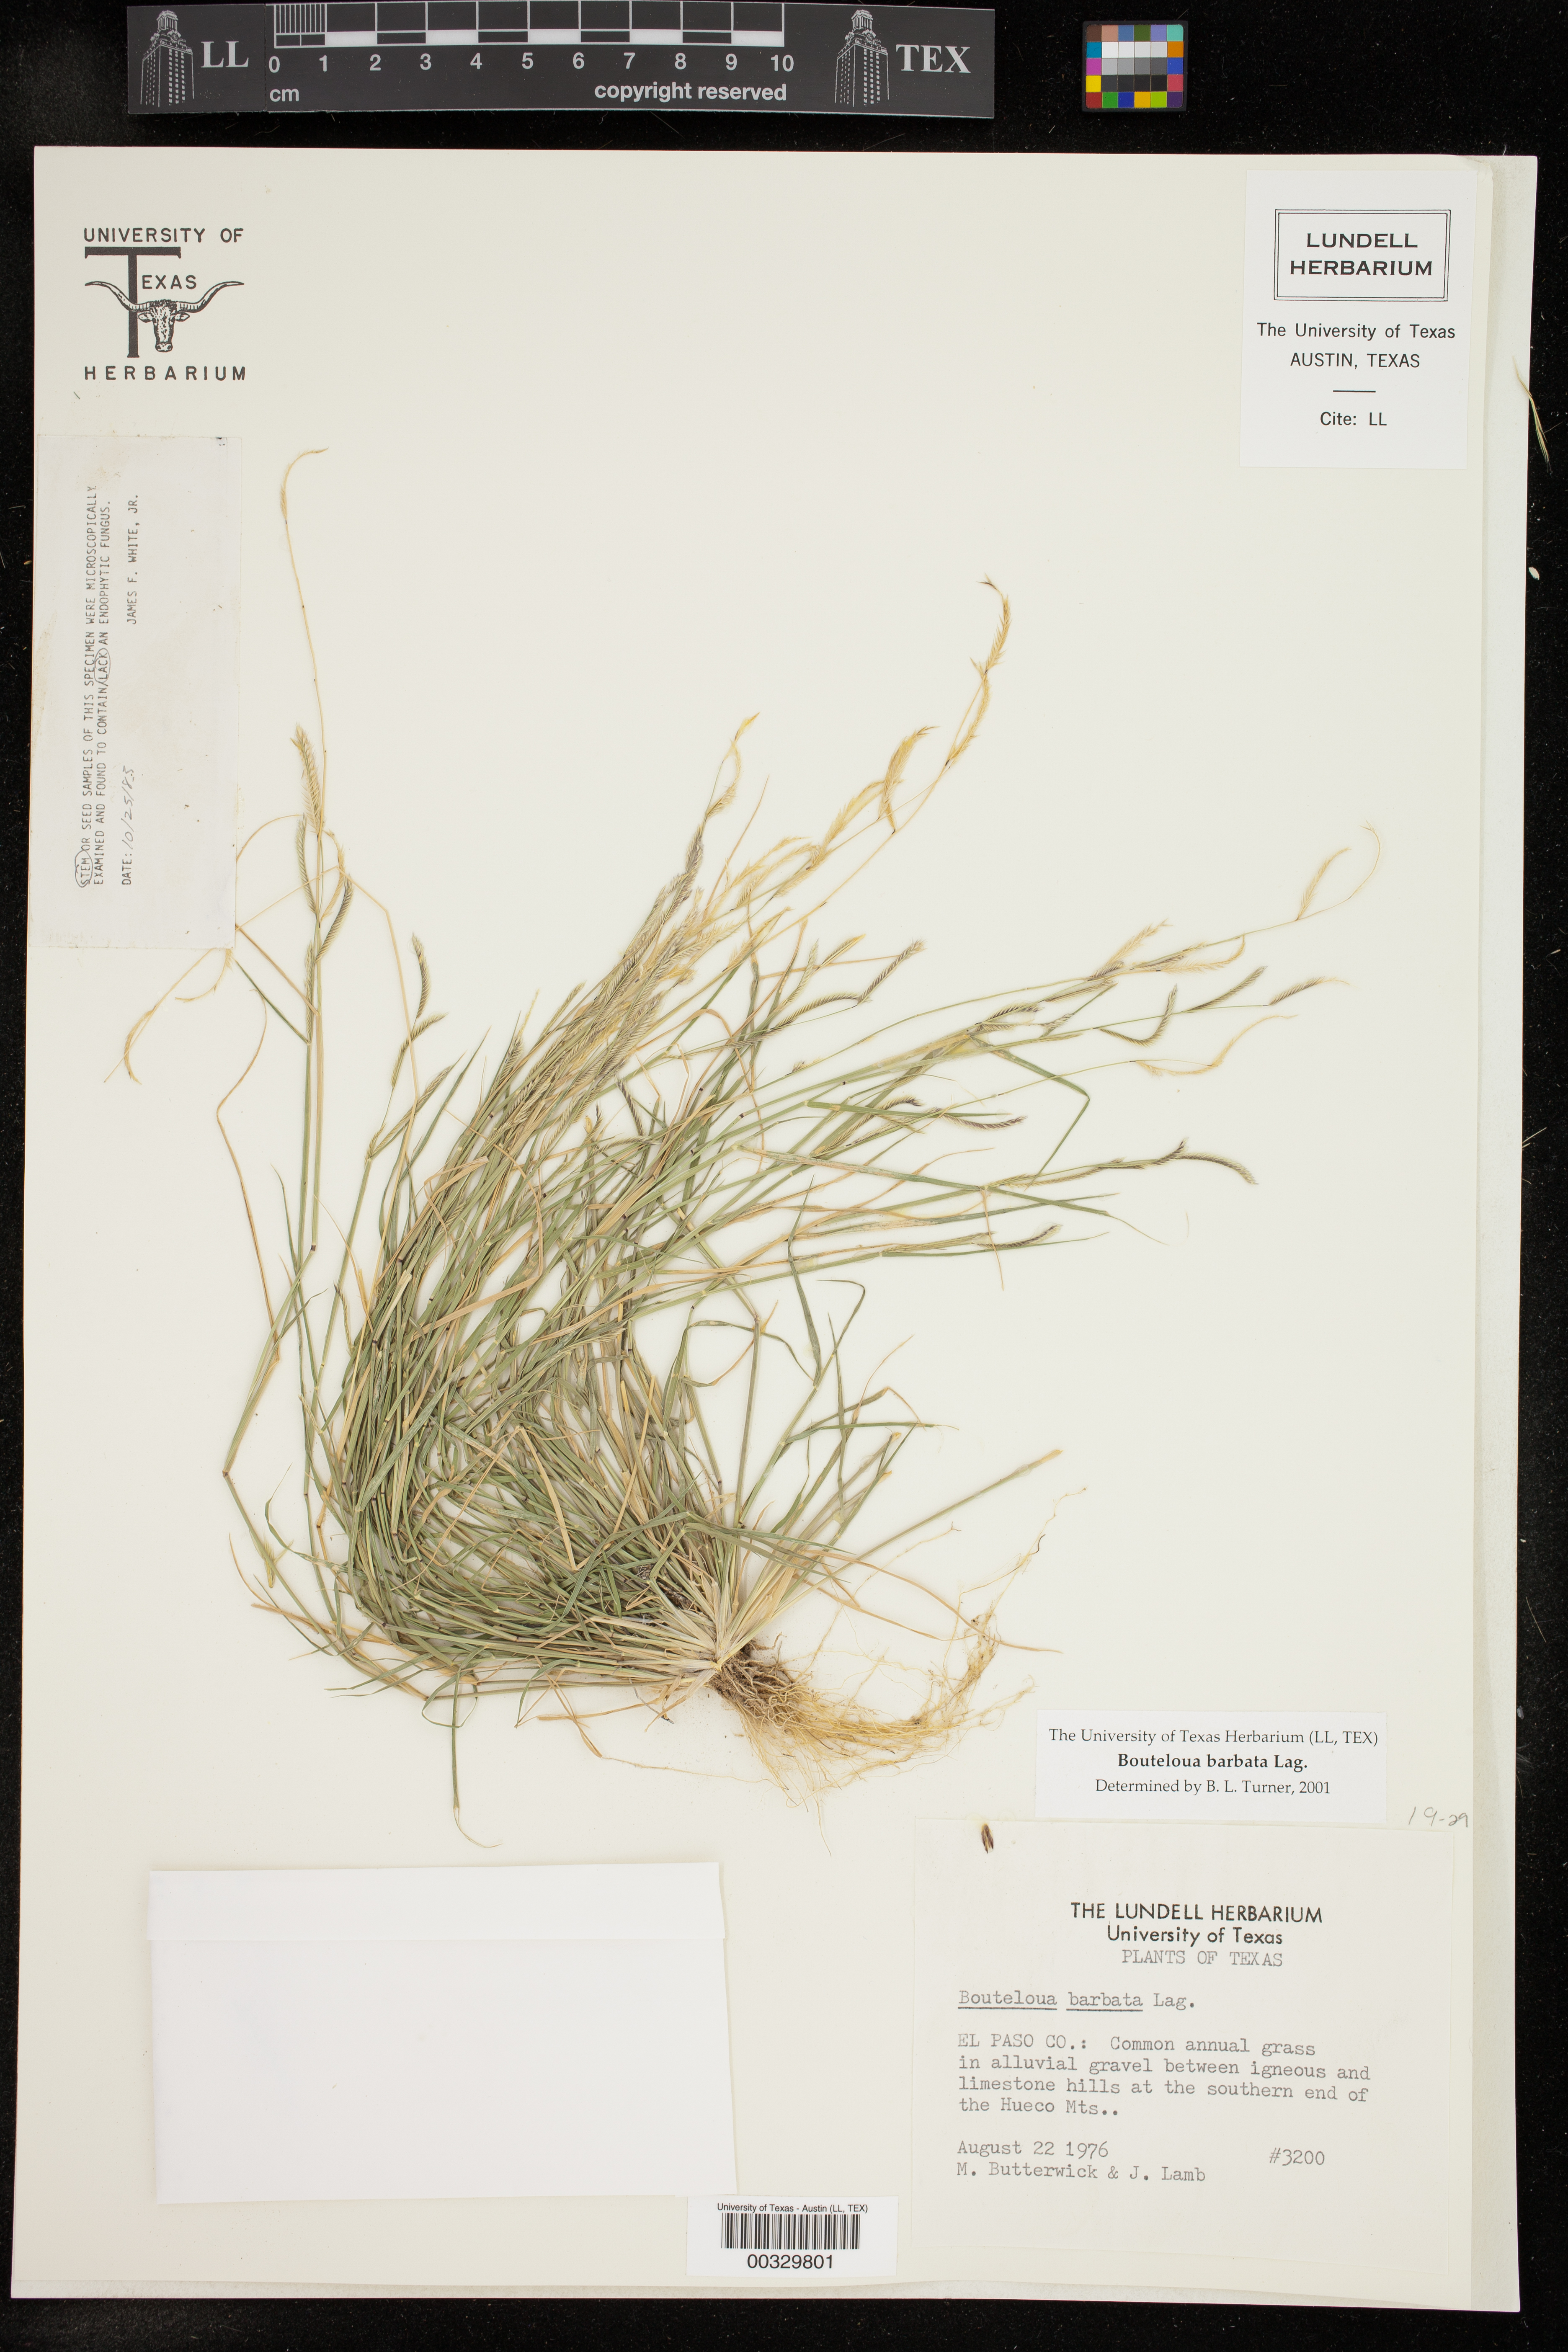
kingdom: Plantae
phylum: Tracheophyta
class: Liliopsida
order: Poales
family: Poaceae
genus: Bouteloua
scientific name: Bouteloua barbata
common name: Six-weeks grama
